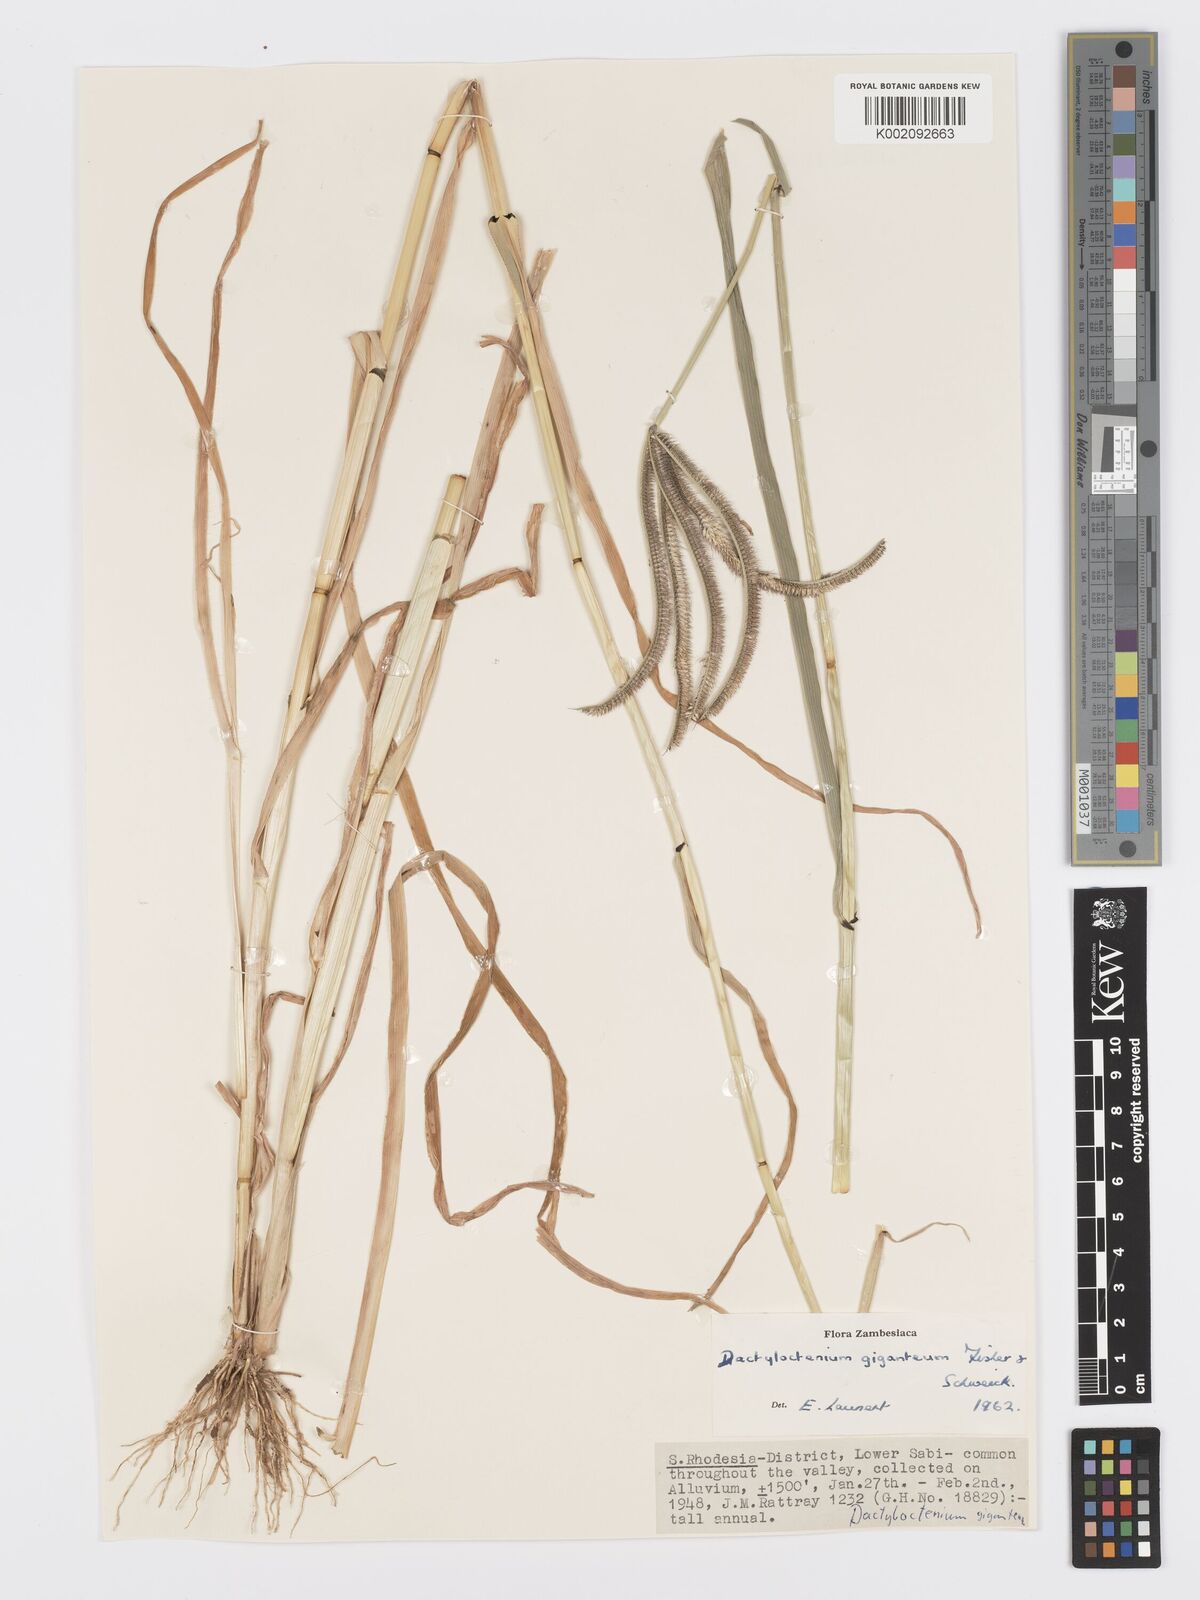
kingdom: Plantae
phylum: Tracheophyta
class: Liliopsida
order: Poales
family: Poaceae
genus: Dactyloctenium
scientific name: Dactyloctenium giganteum
